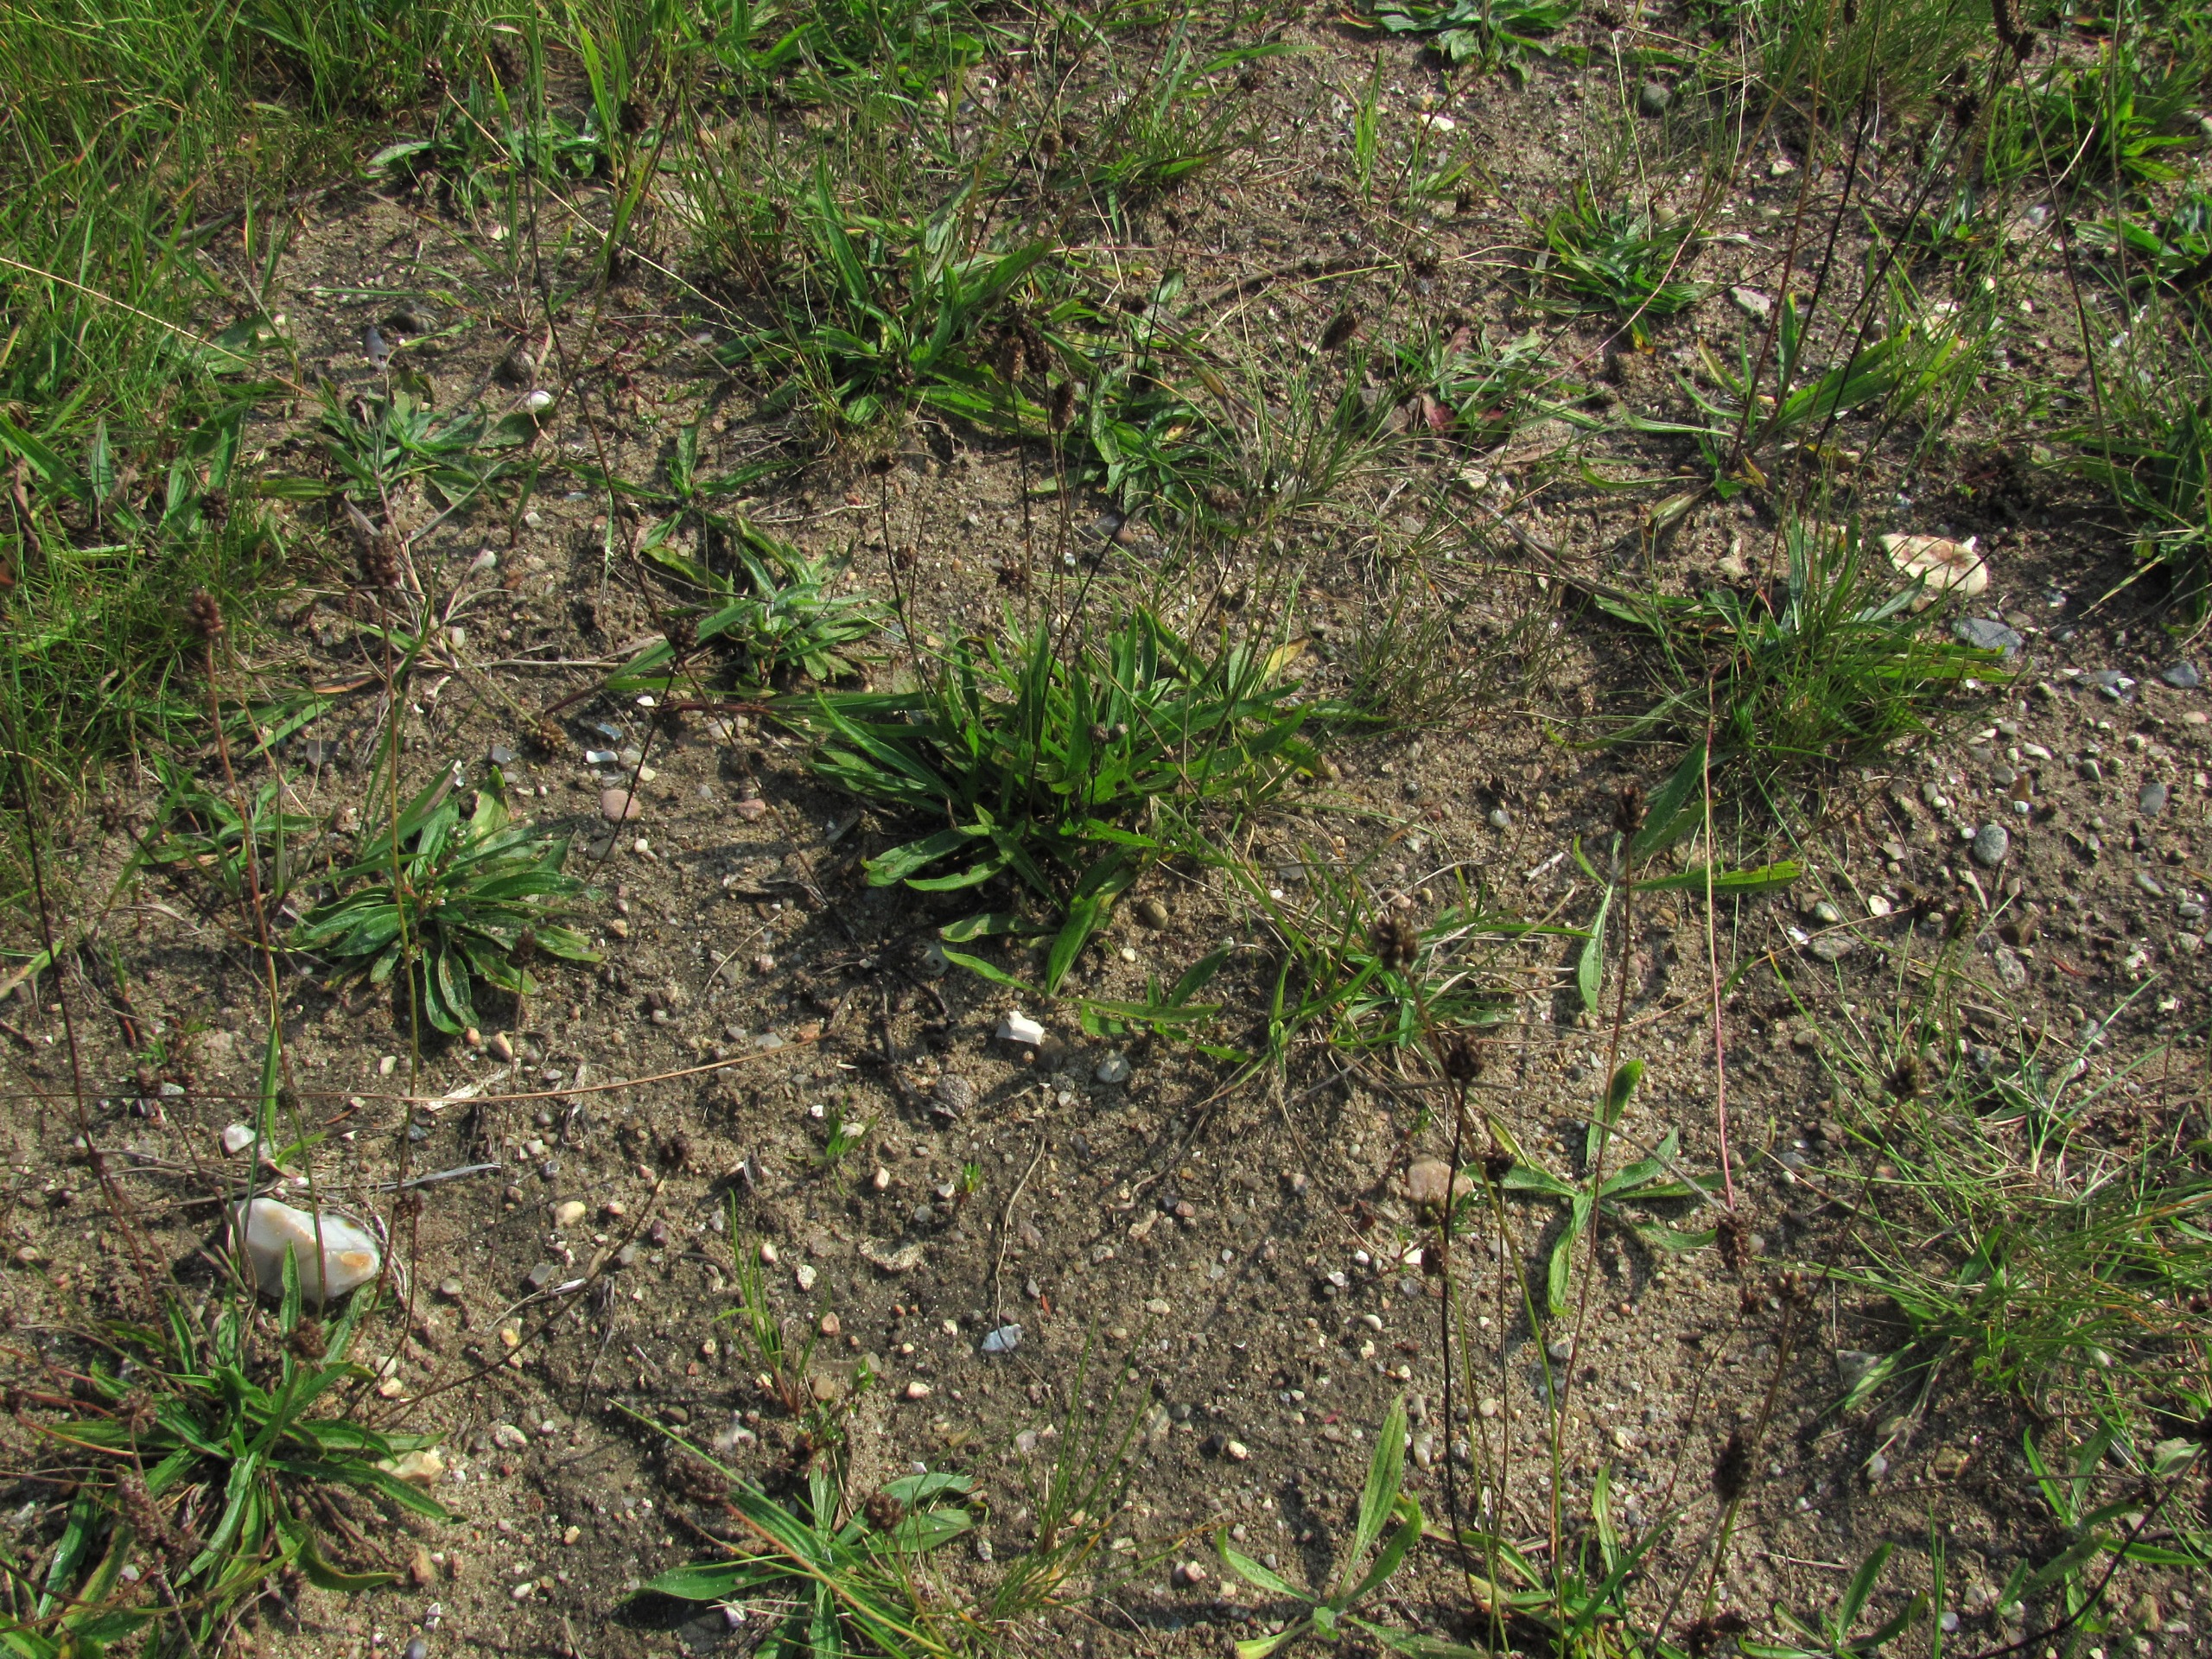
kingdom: Plantae
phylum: Tracheophyta
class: Magnoliopsida
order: Lamiales
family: Plantaginaceae
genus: Plantago
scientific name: Plantago lanceolata
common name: Lancet-vejbred
